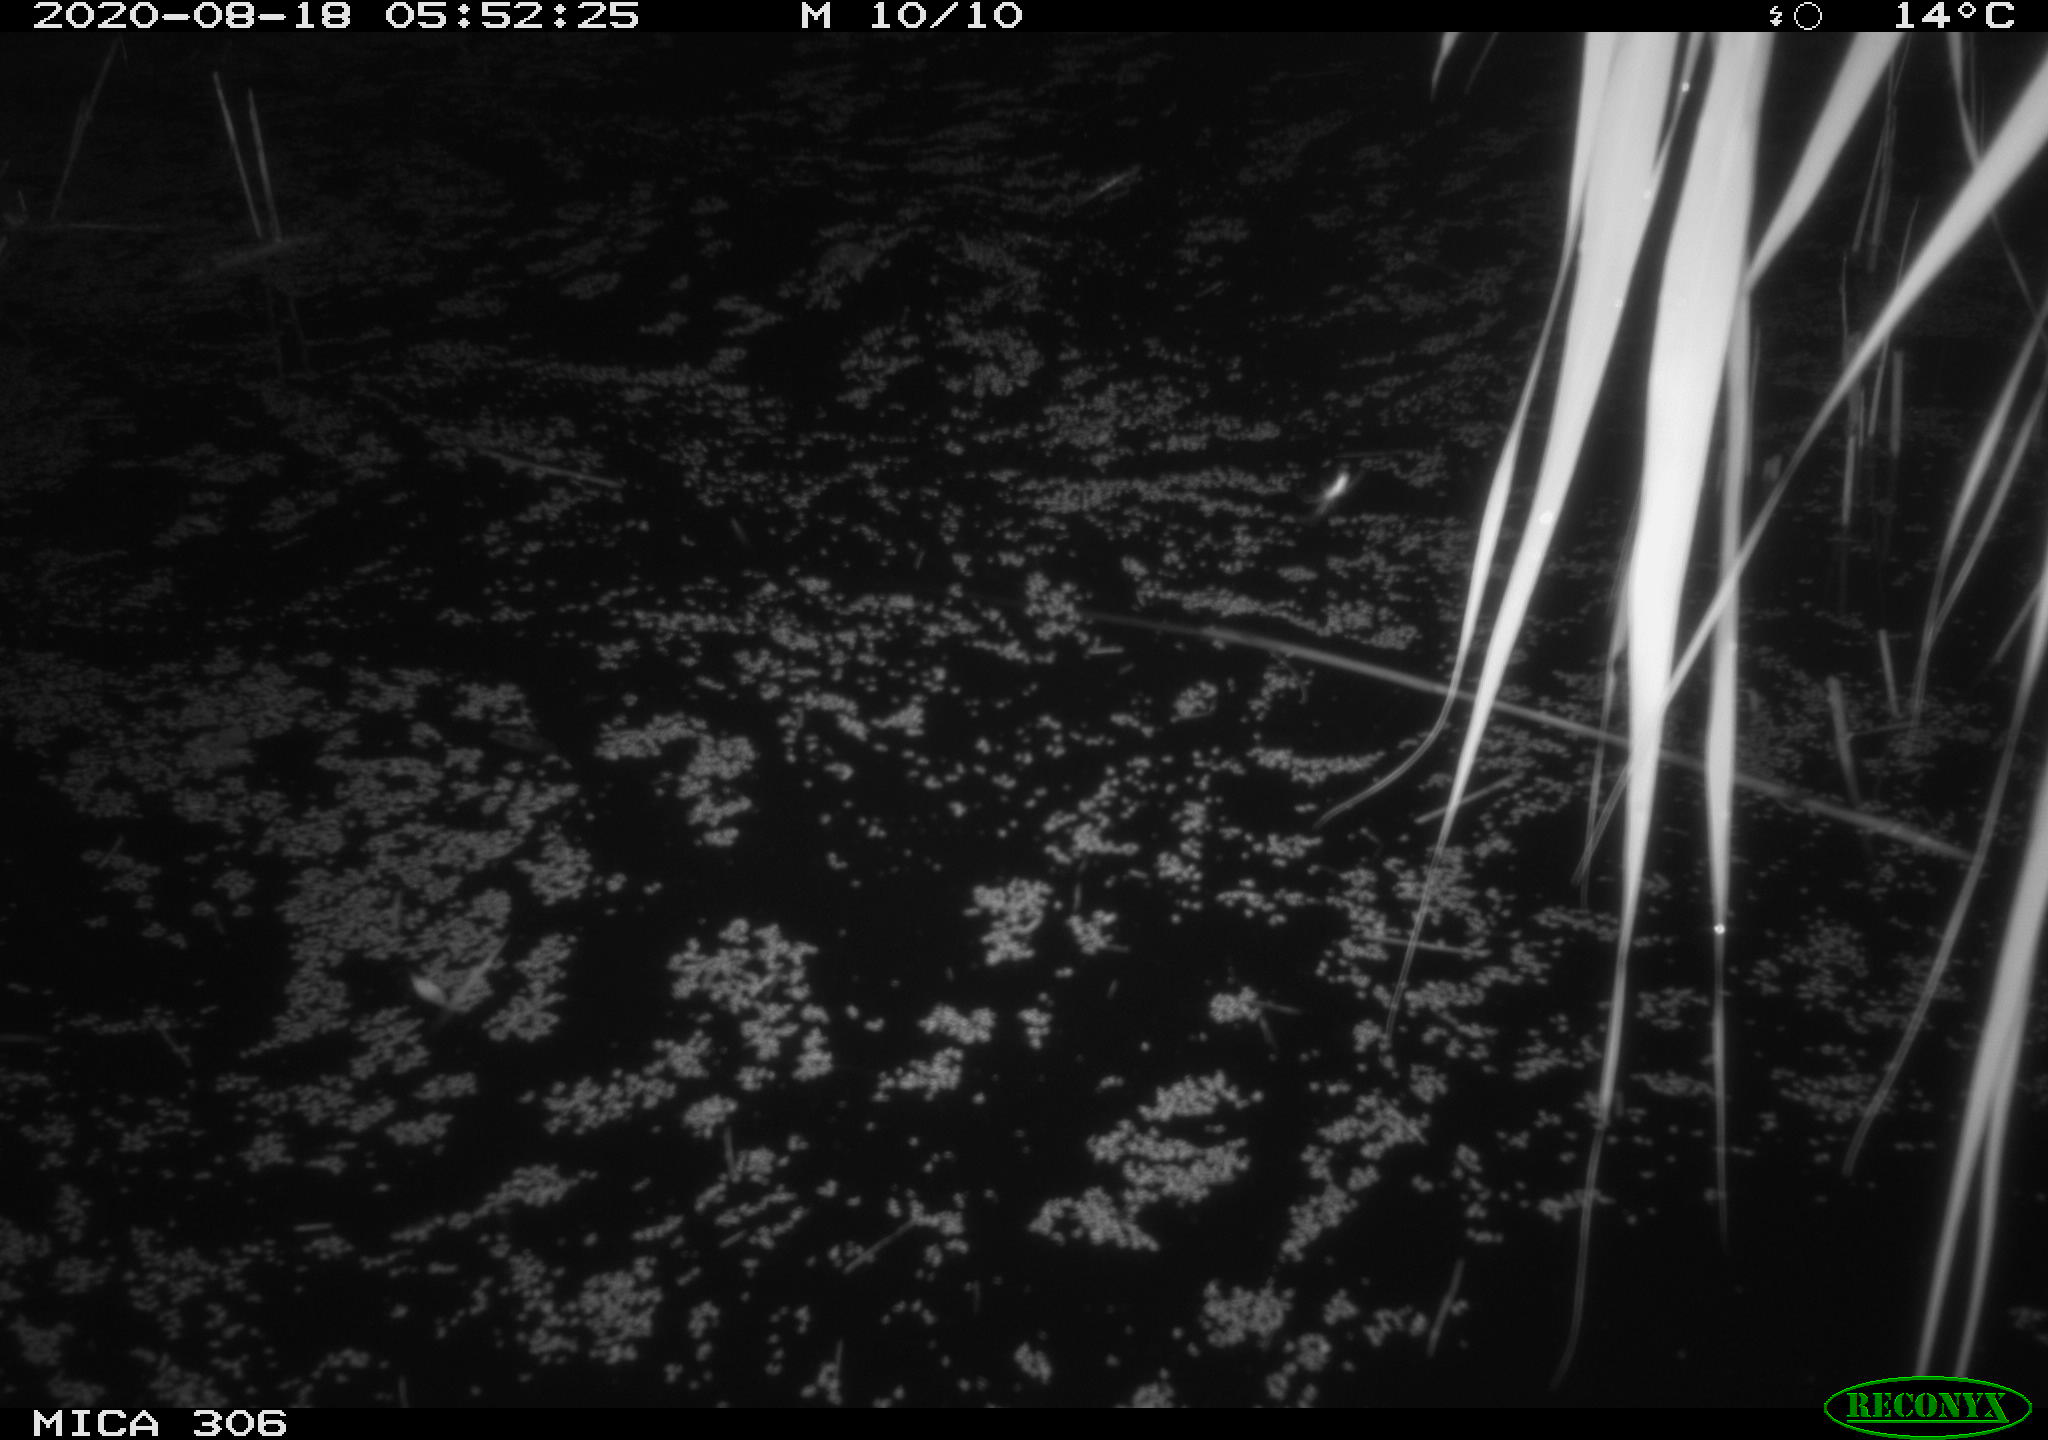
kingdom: Animalia
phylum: Chordata
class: Mammalia
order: Rodentia
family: Muridae
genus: Rattus
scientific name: Rattus norvegicus
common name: Brown rat
